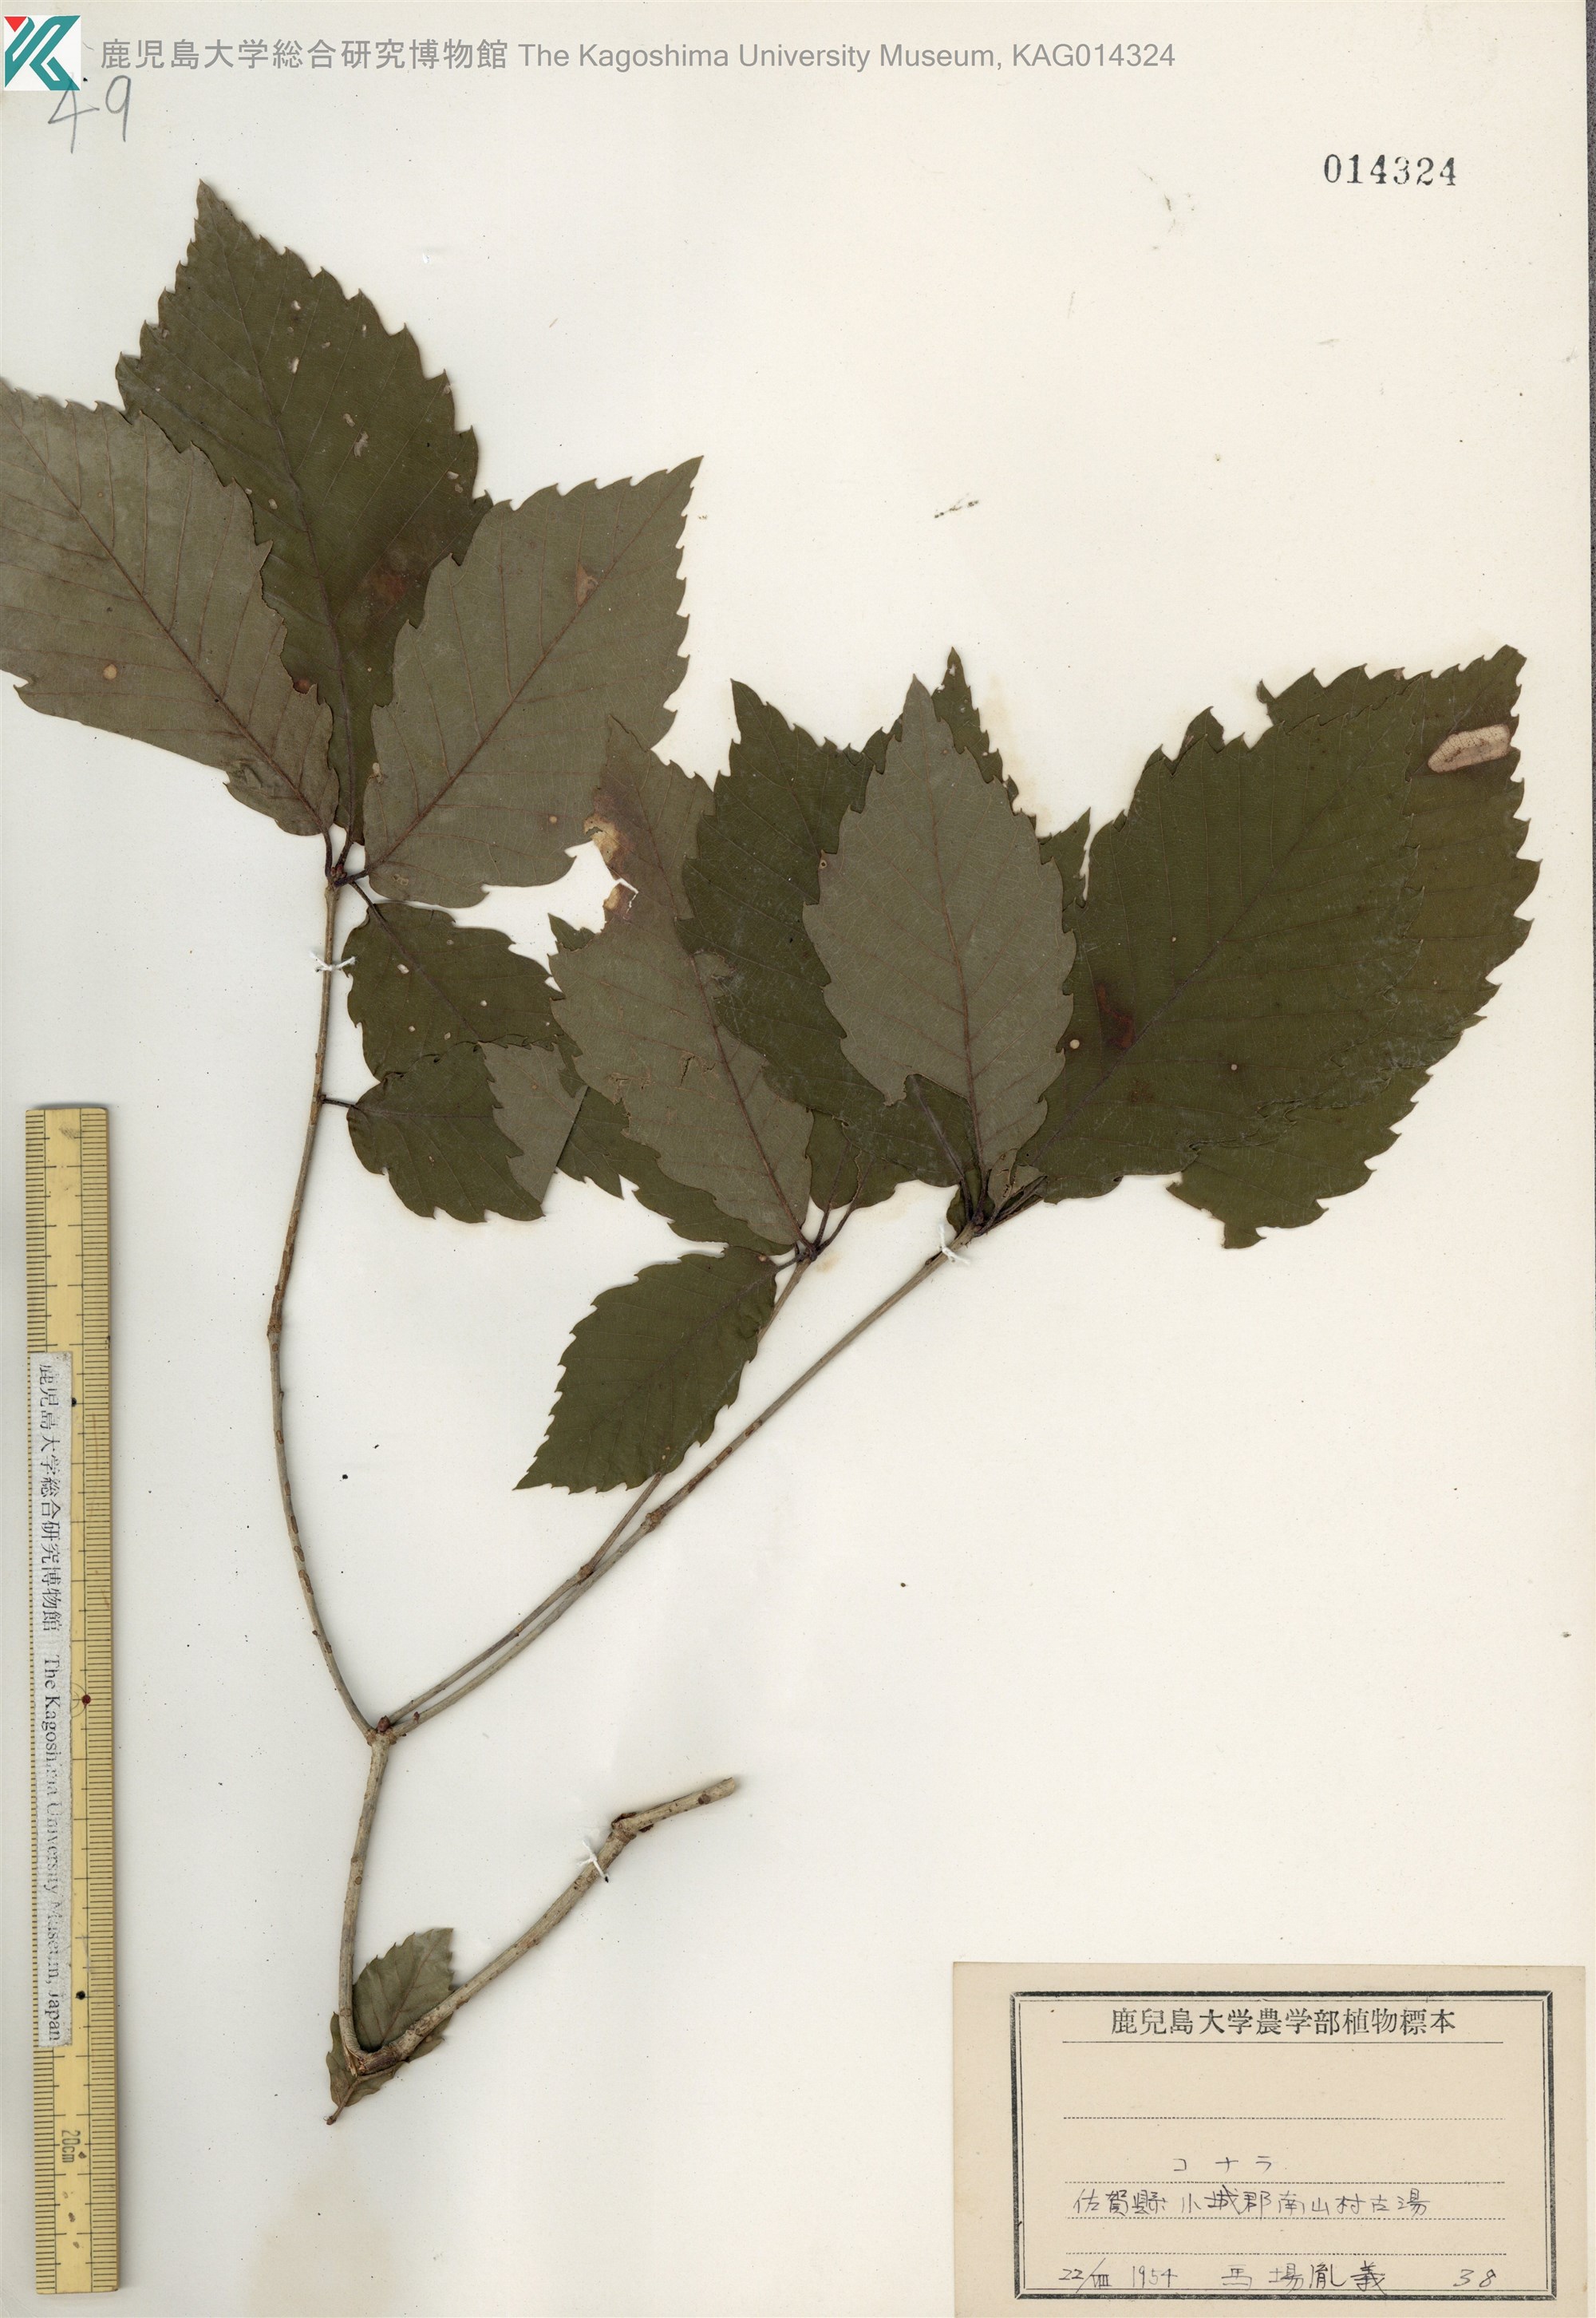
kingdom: Plantae
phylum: Tracheophyta
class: Magnoliopsida
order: Fagales
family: Fagaceae
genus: Quercus
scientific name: Quercus serrata
